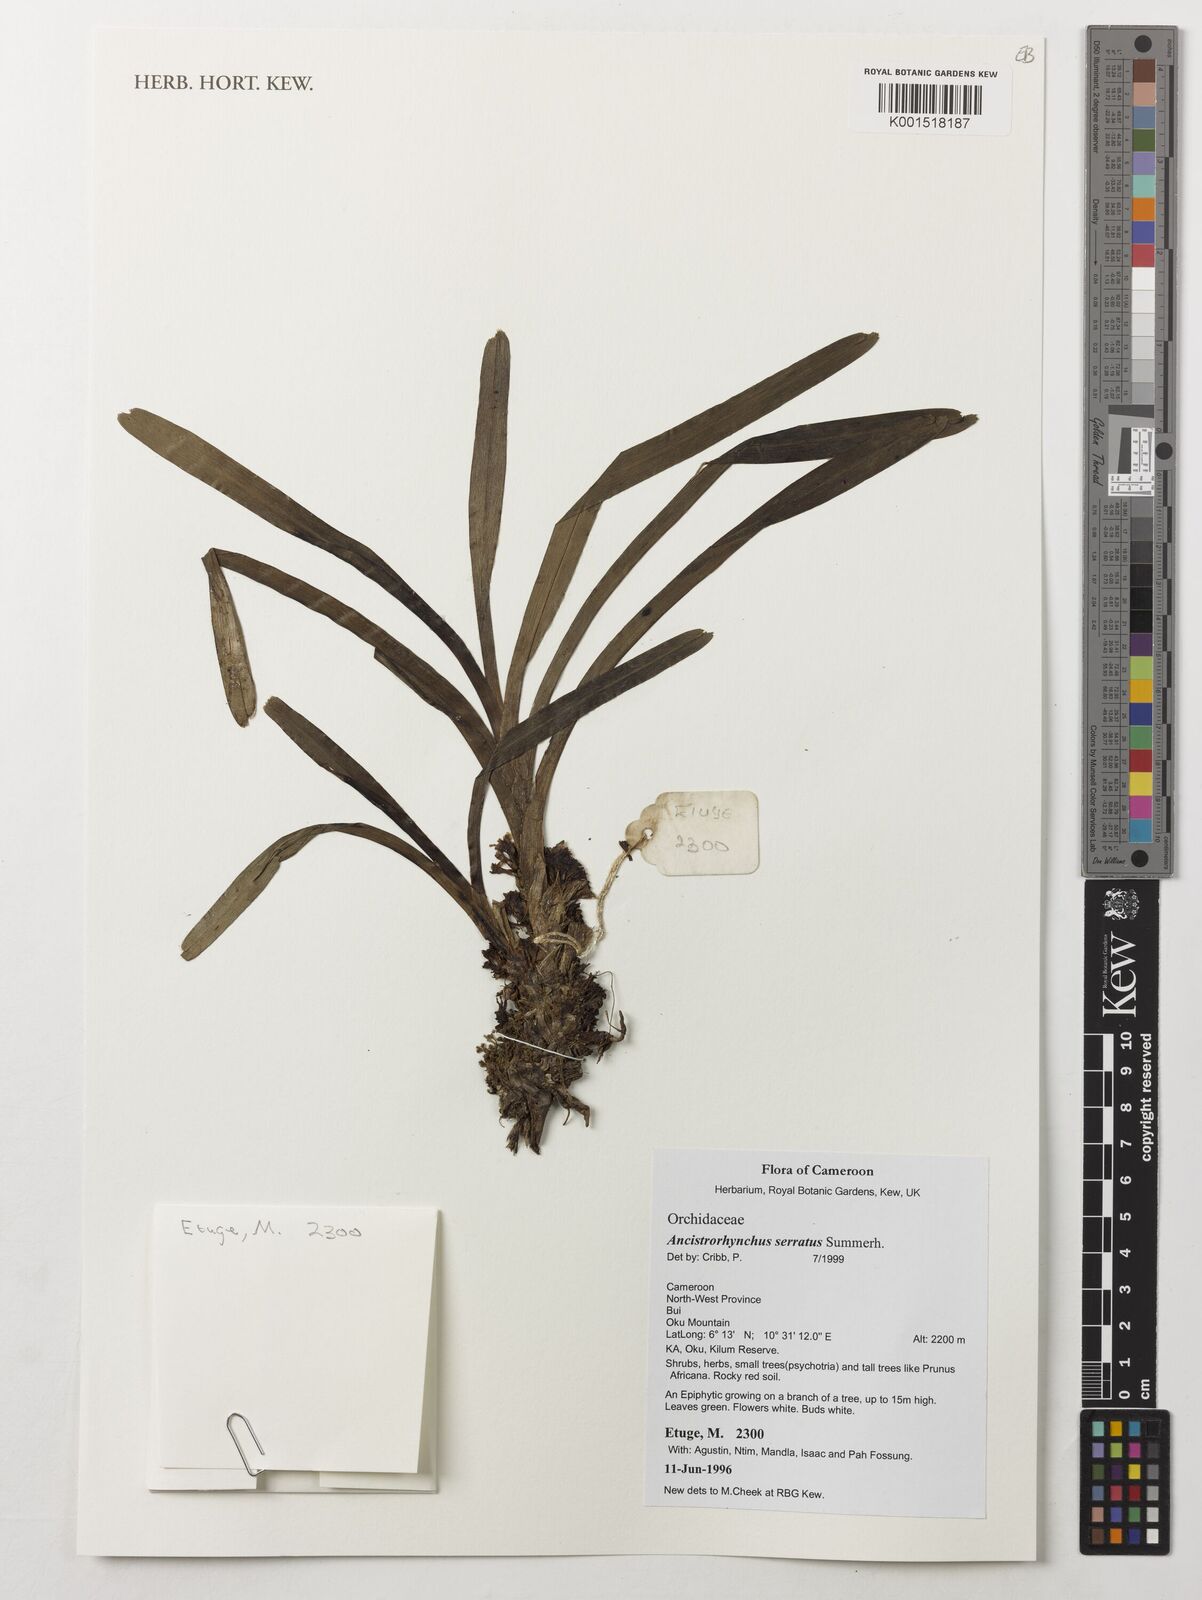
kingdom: Plantae
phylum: Tracheophyta
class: Liliopsida
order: Asparagales
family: Orchidaceae
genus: Ancistrorhynchus
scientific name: Ancistrorhynchus serratus
